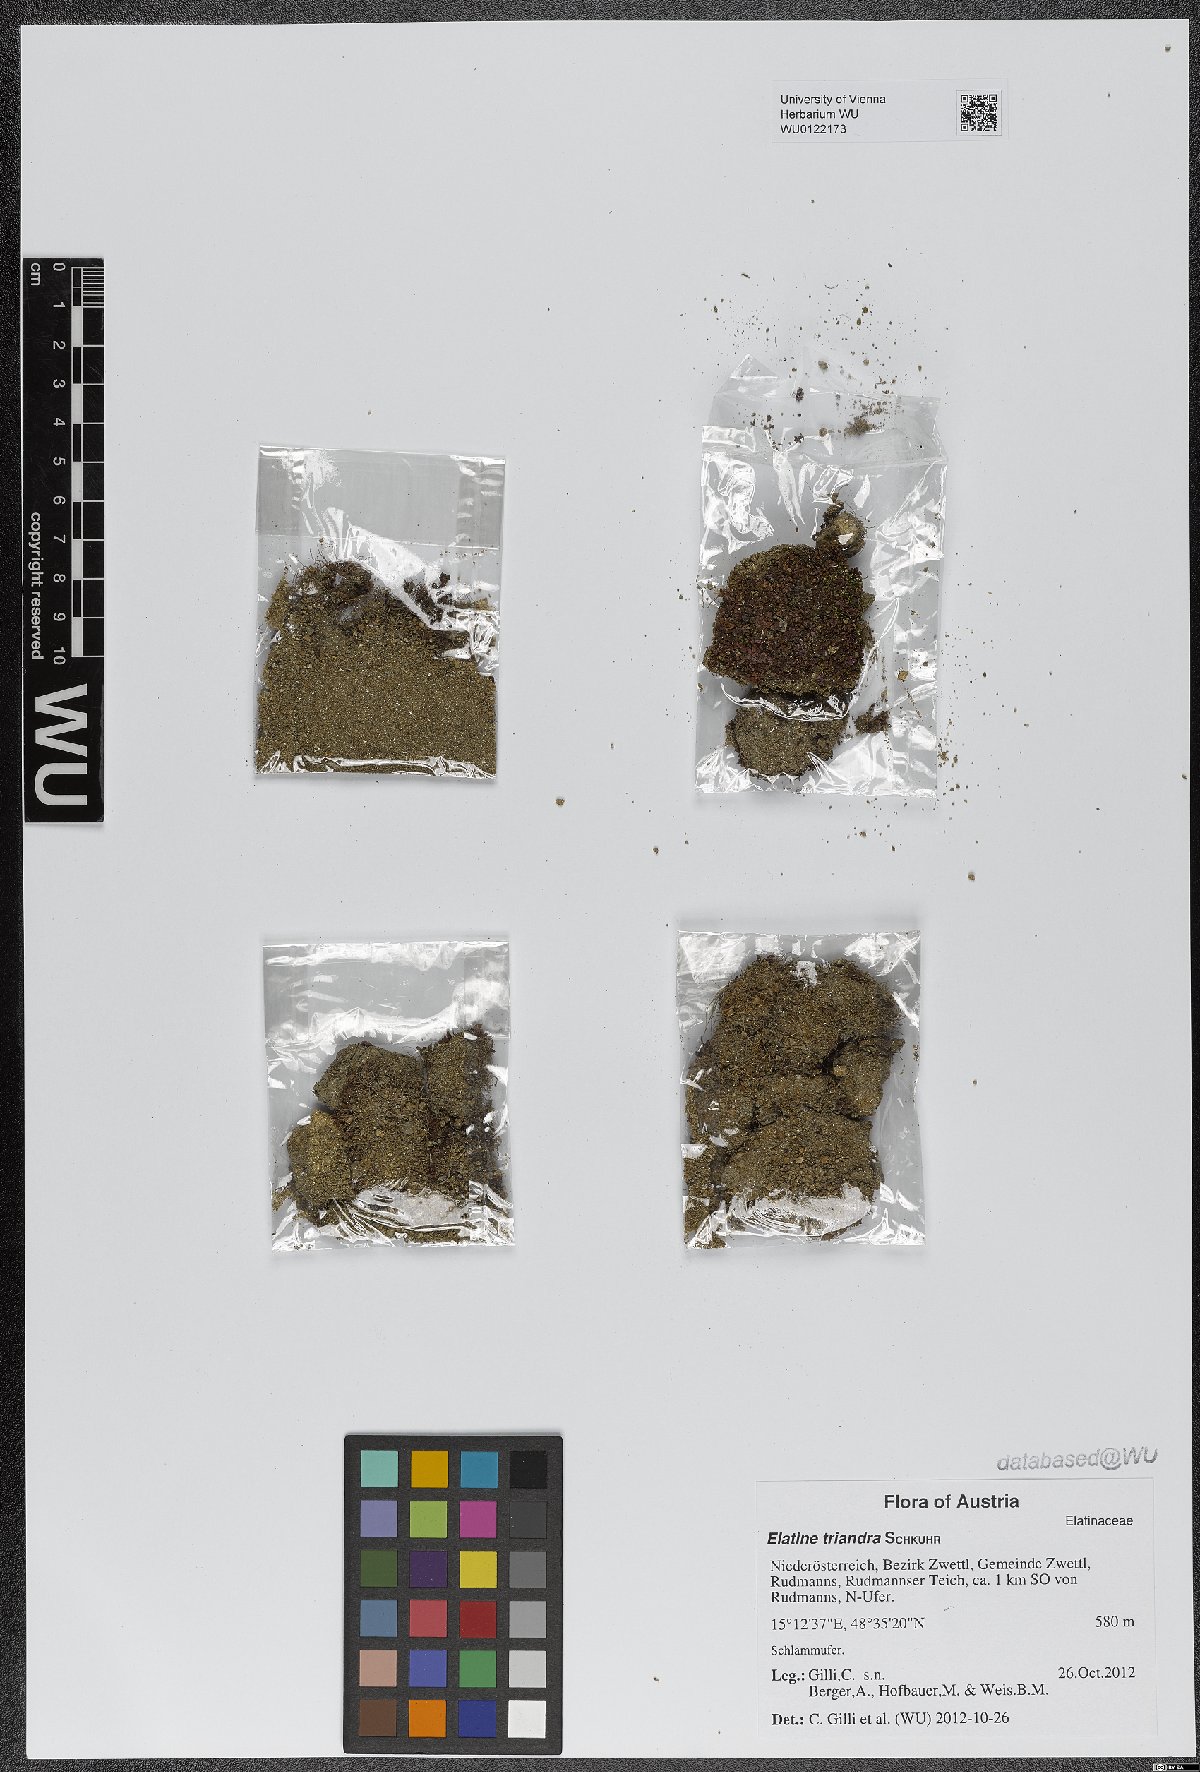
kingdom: Plantae
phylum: Tracheophyta
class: Magnoliopsida
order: Malpighiales
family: Elatinaceae
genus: Elatine
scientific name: Elatine triandra
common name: Three-stamened waterwort
